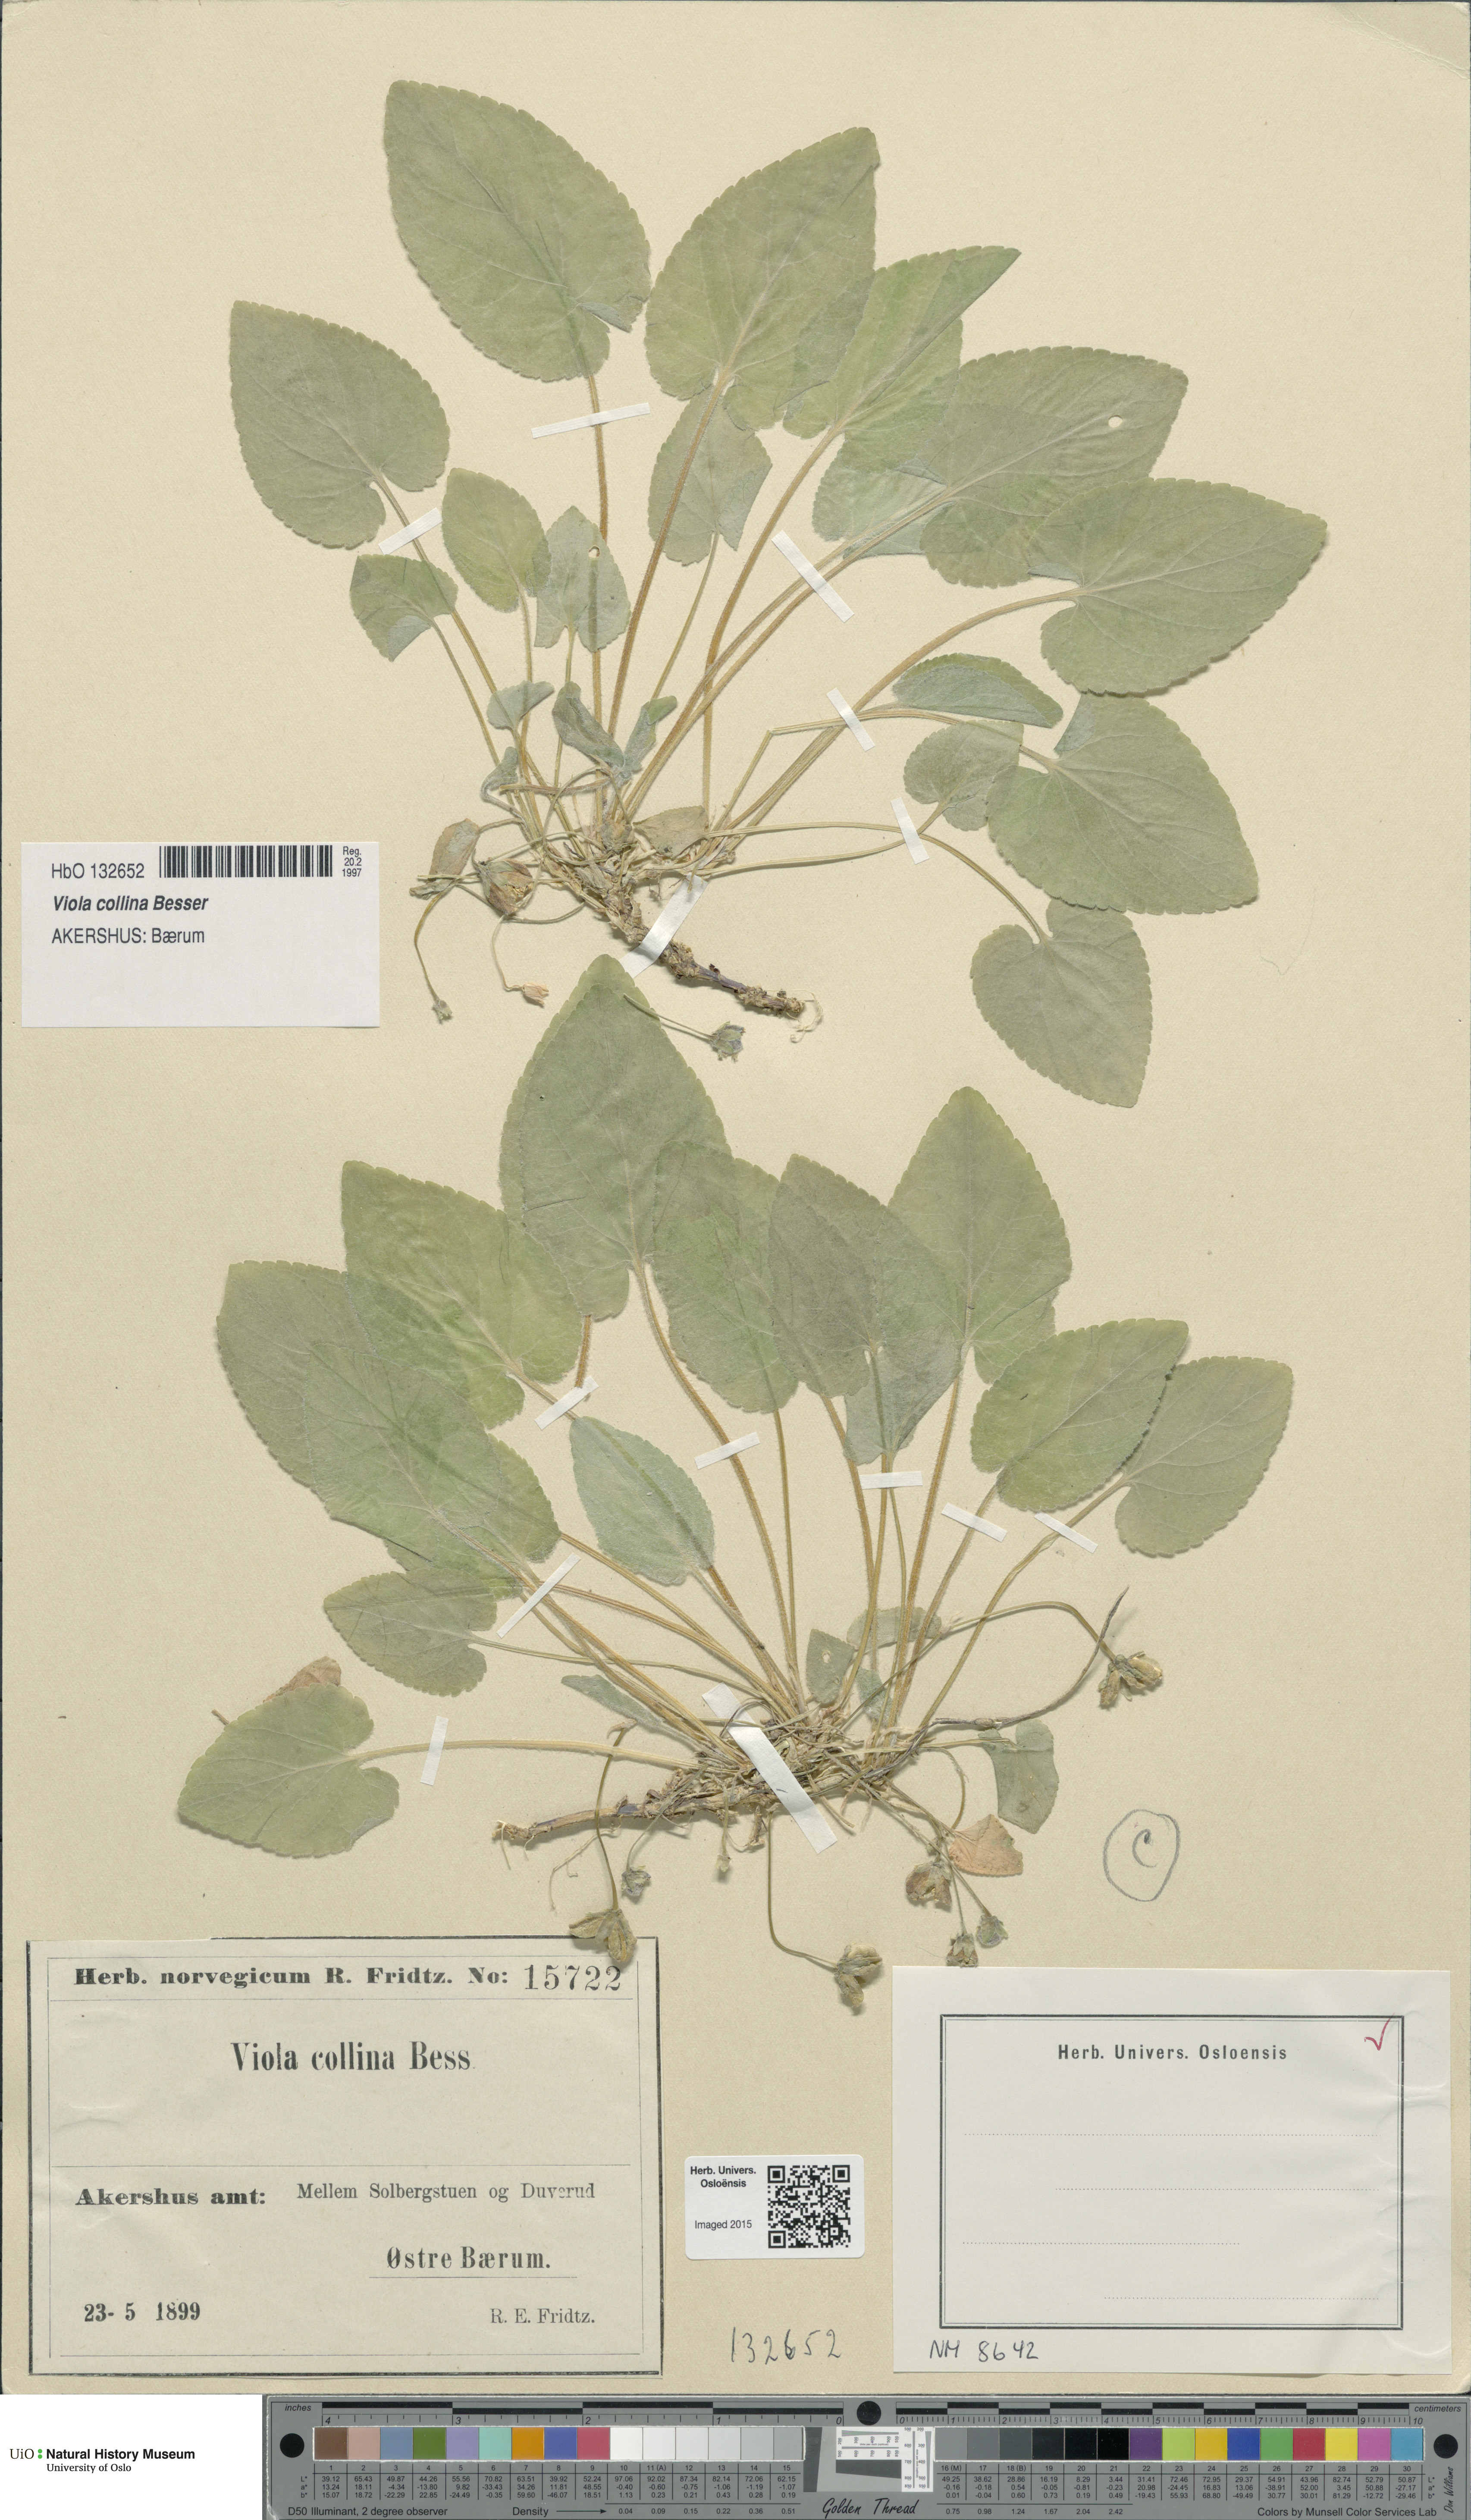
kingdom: Plantae
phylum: Tracheophyta
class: Magnoliopsida
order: Malpighiales
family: Violaceae
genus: Viola
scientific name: Viola collina
